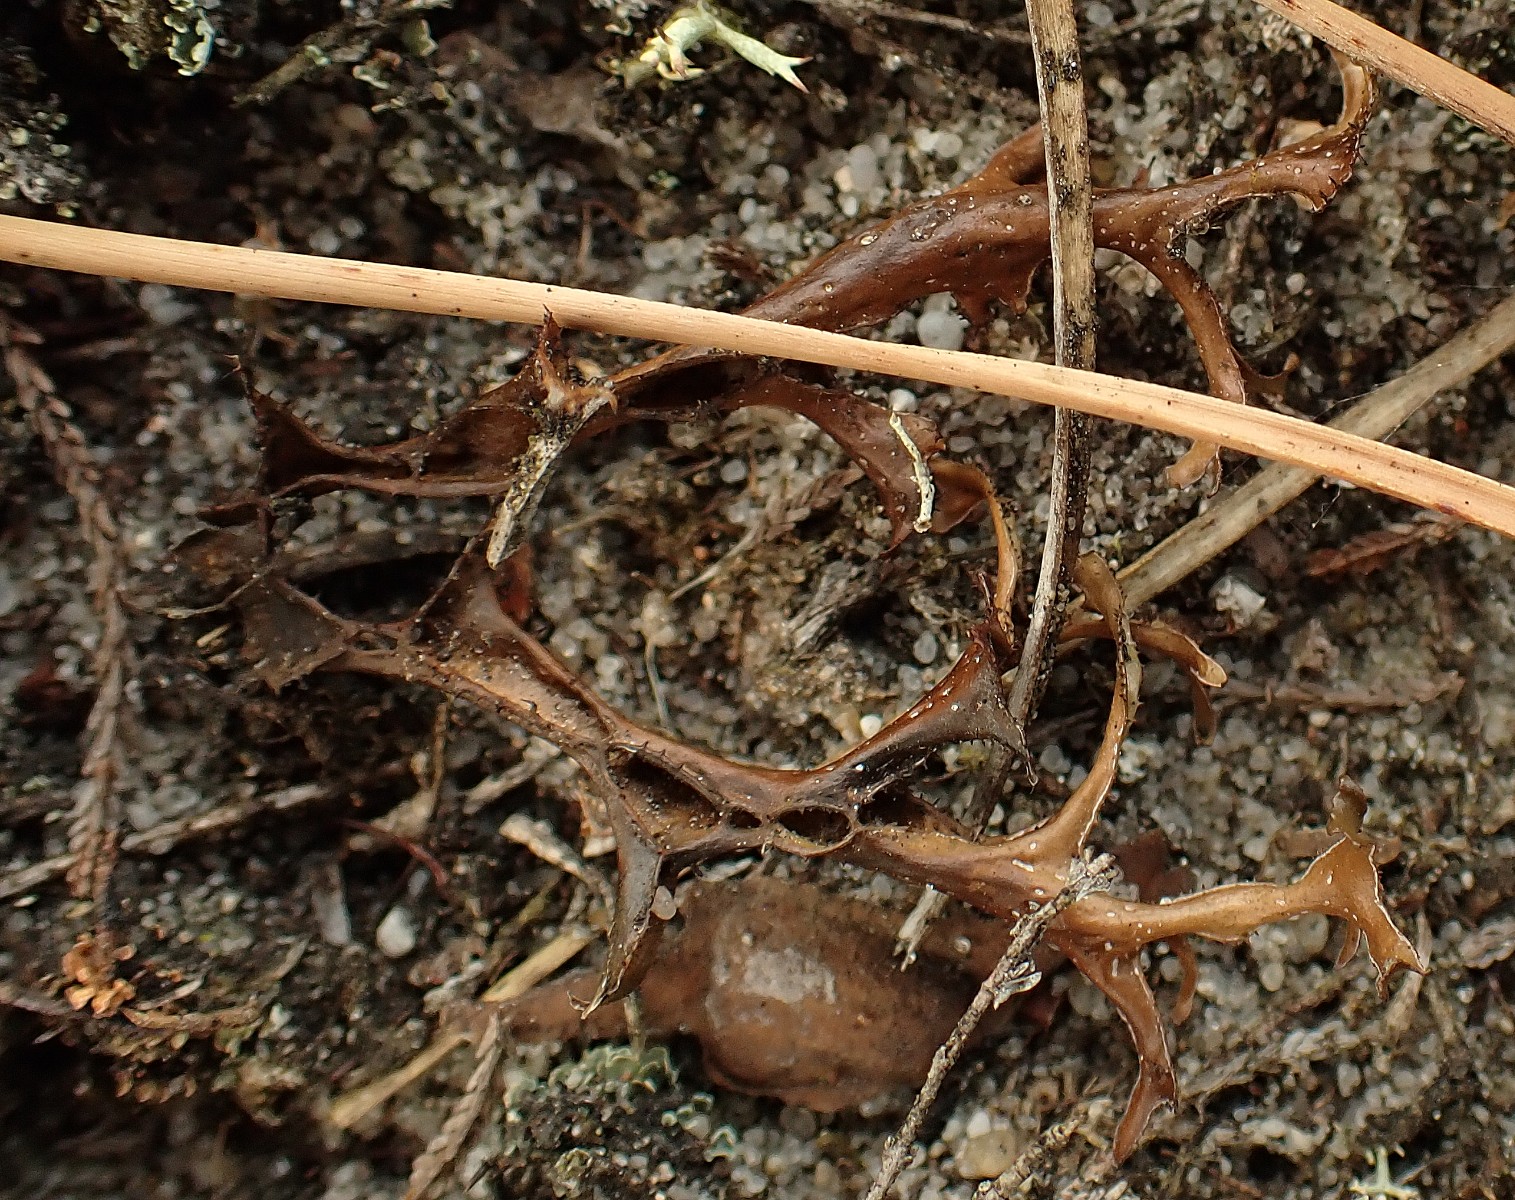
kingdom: Fungi
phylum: Ascomycota
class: Lecanoromycetes
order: Lecanorales
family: Parmeliaceae
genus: Cetraria
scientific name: Cetraria islandica
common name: islandsk kruslav
